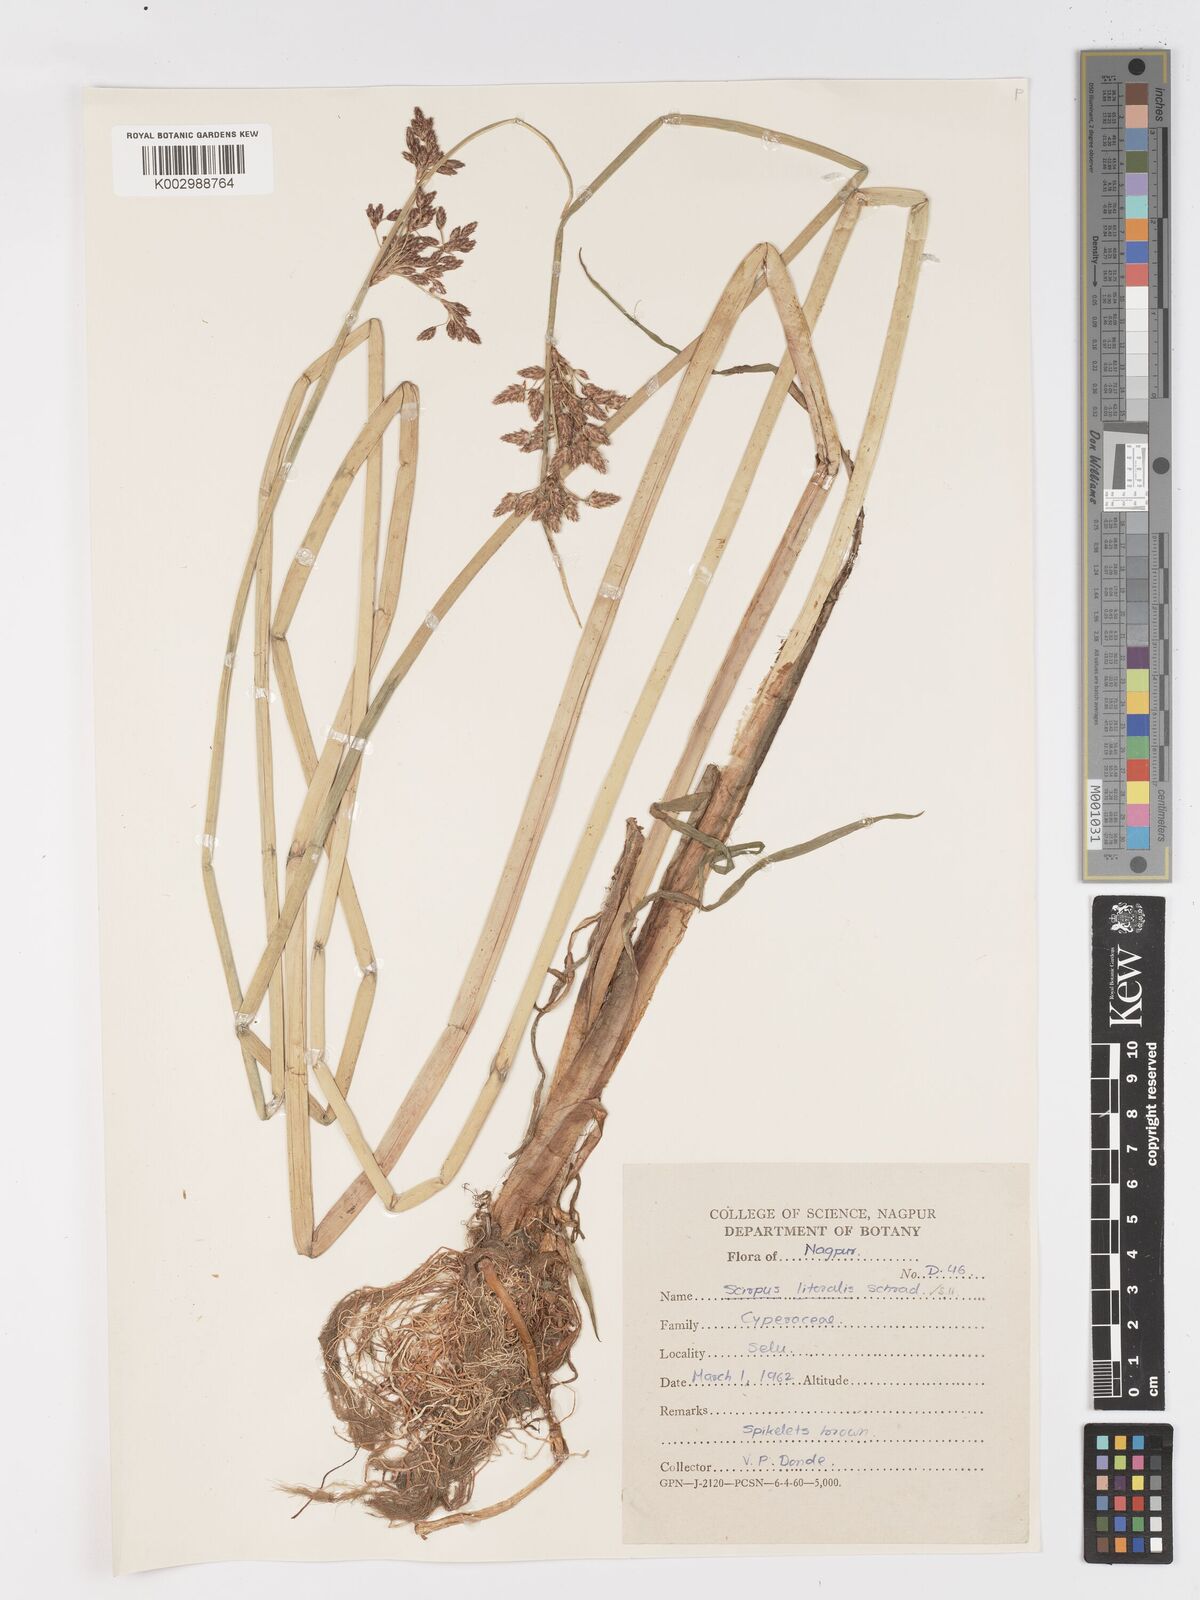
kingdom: Plantae
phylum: Tracheophyta
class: Liliopsida
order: Poales
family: Cyperaceae
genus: Schoenoplectus
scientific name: Schoenoplectus litoralis
